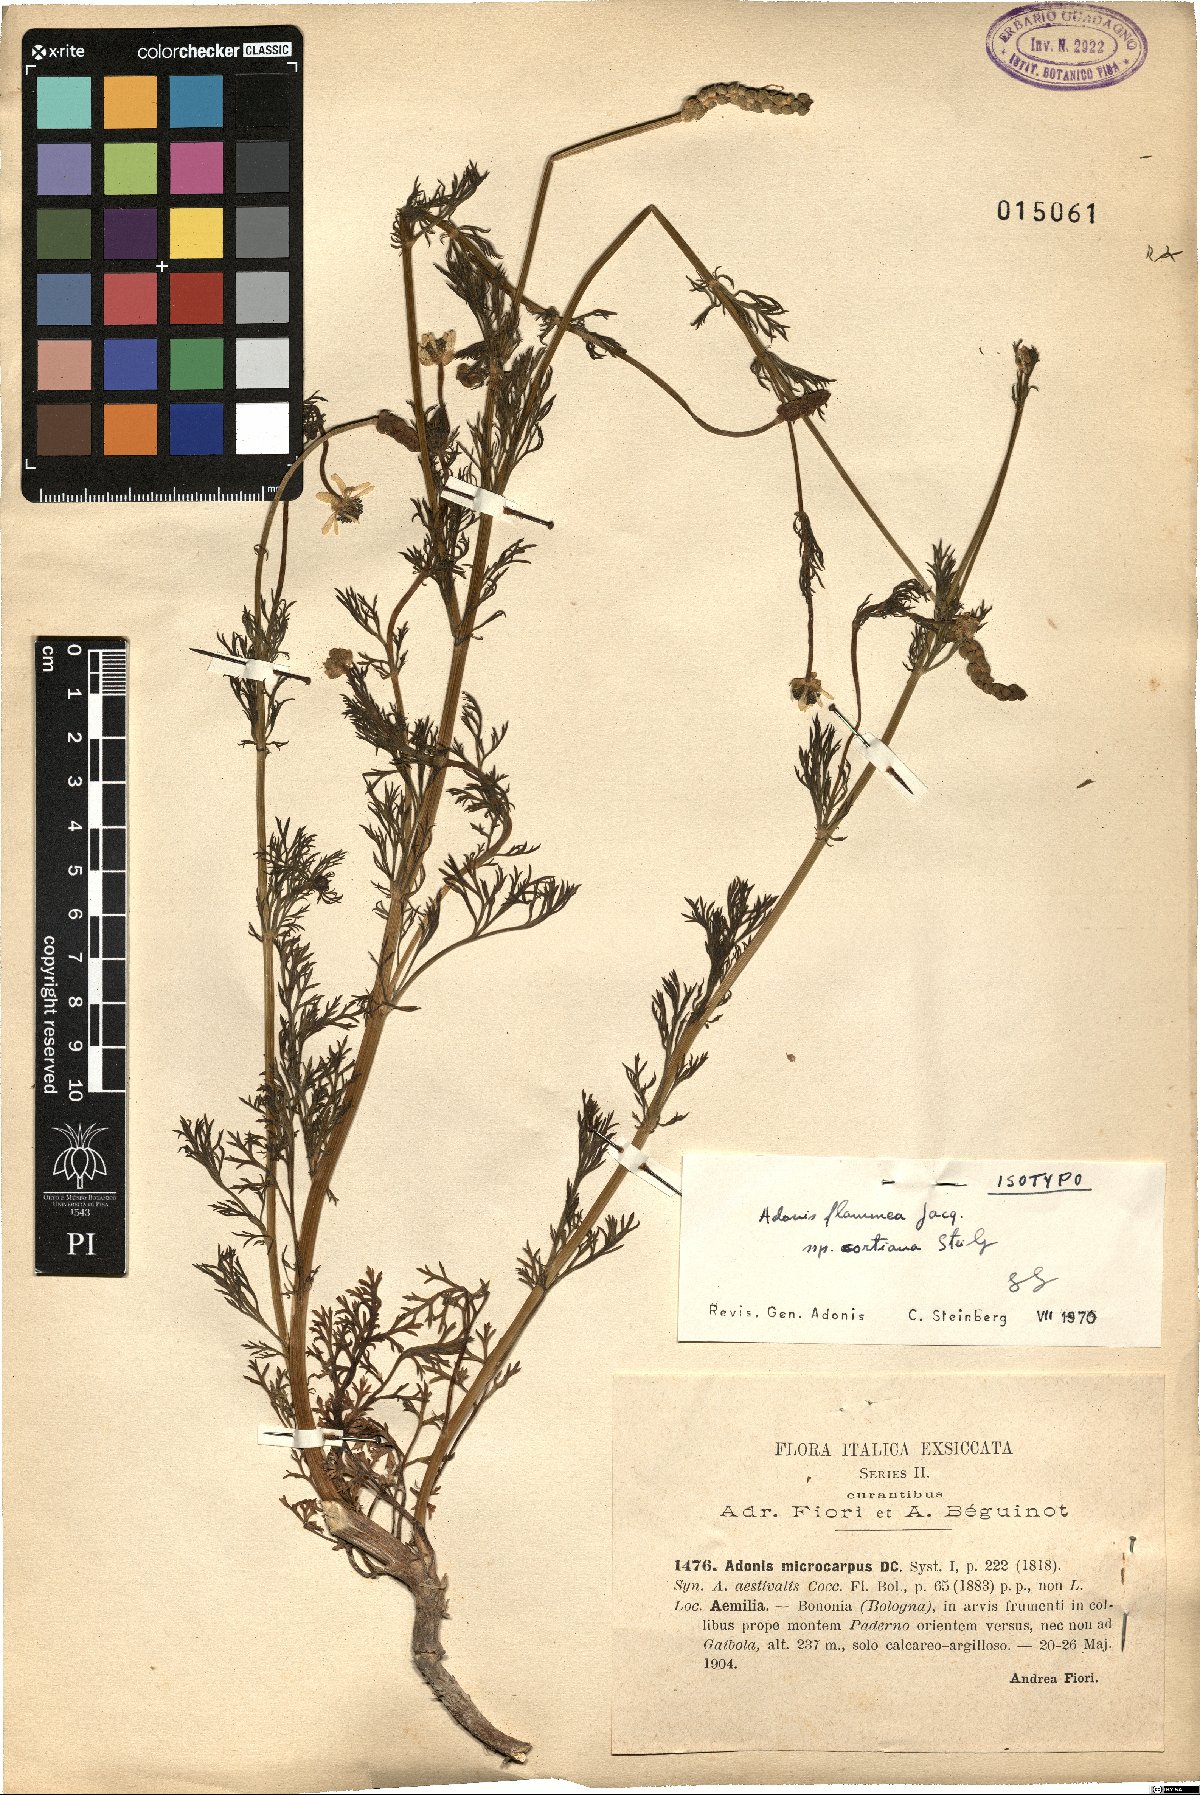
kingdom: Plantae
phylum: Tracheophyta
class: Magnoliopsida
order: Ranunculales
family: Ranunculaceae
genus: Adonis
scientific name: Adonis flammea
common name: Large pheasant's-eye
